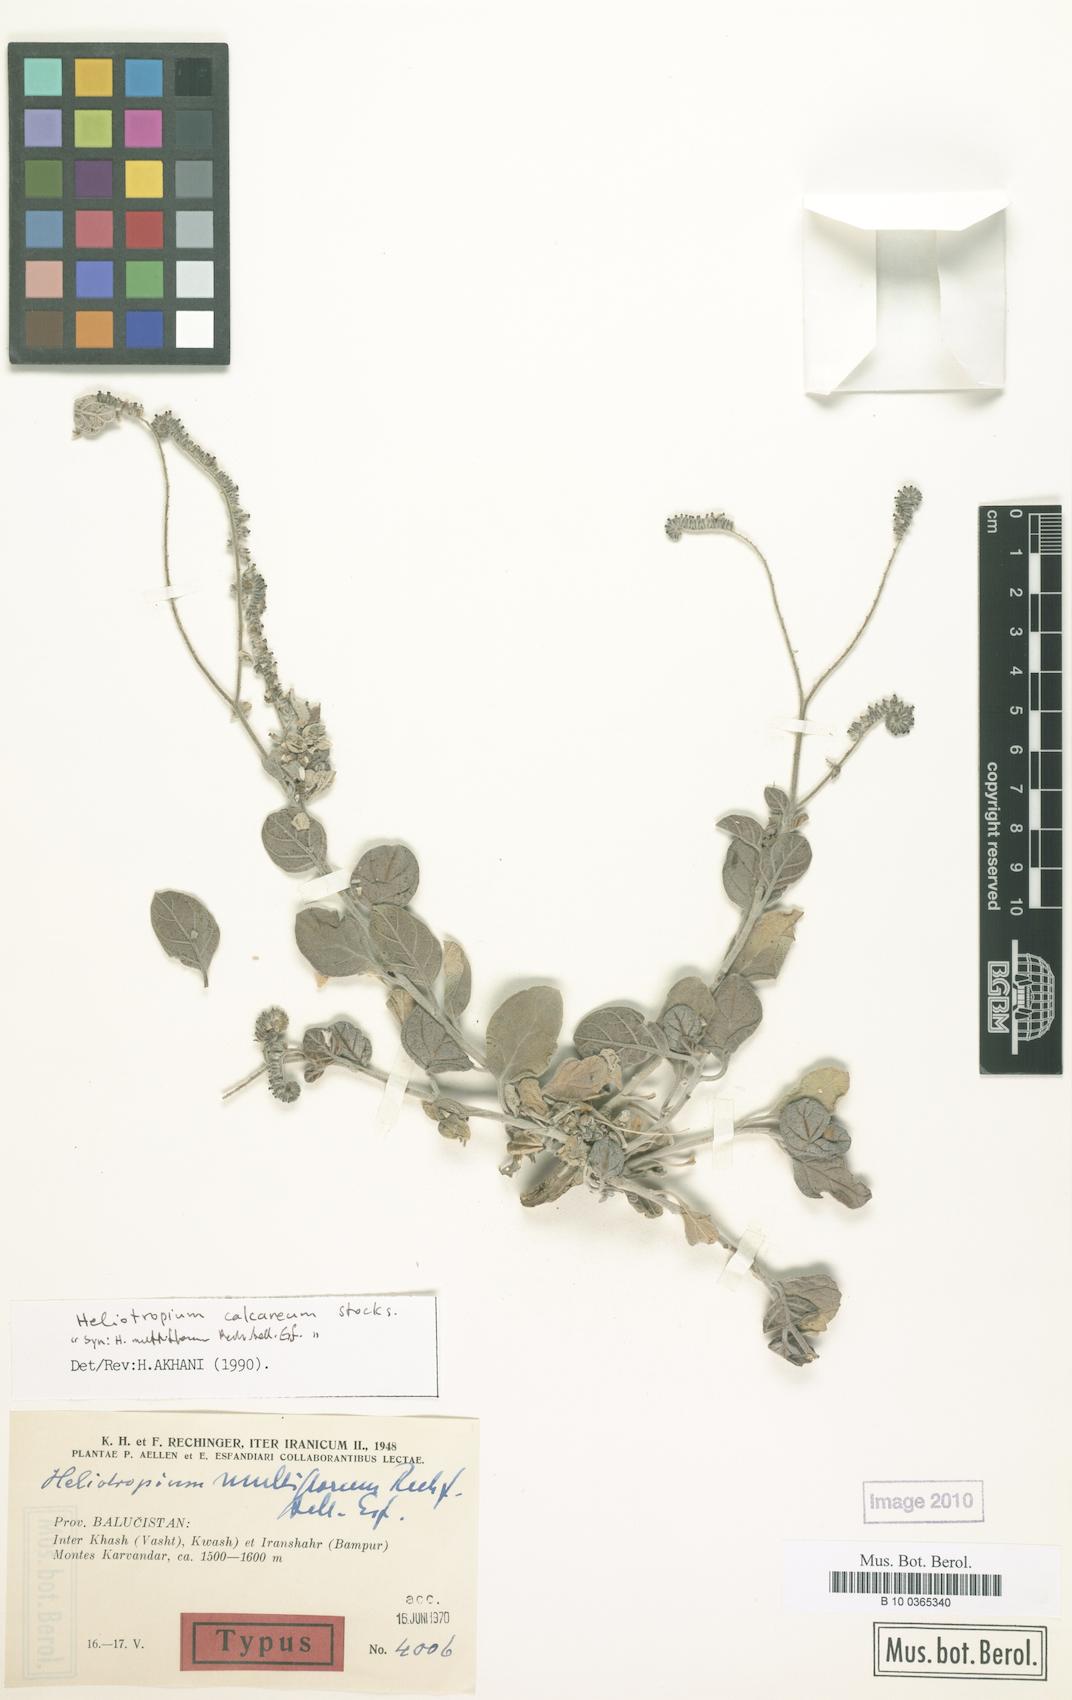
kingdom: Plantae
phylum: Tracheophyta
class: Magnoliopsida
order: Boraginales
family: Boraginaceae
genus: Echiochilon
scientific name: Echiochilon persicum
